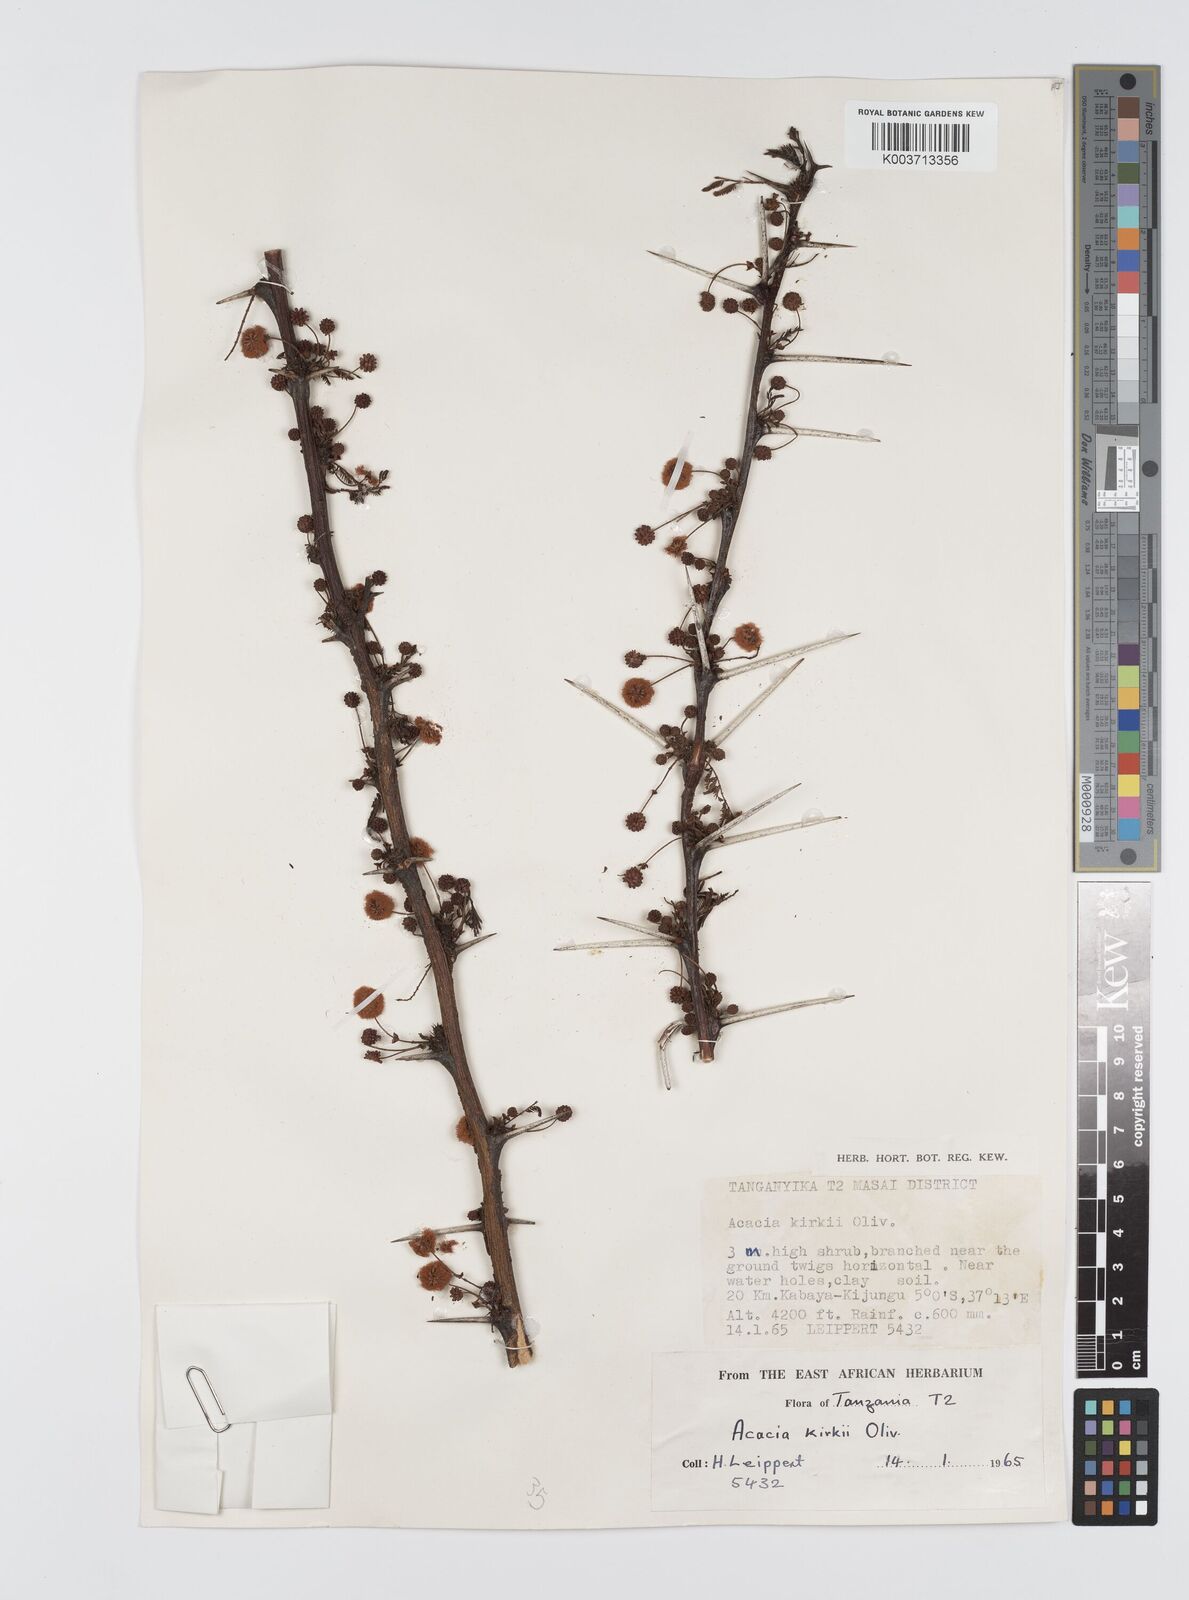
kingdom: Plantae
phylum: Tracheophyta
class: Magnoliopsida
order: Fabales
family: Fabaceae
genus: Vachellia
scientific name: Vachellia kirkii
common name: Flood-plain acacia
